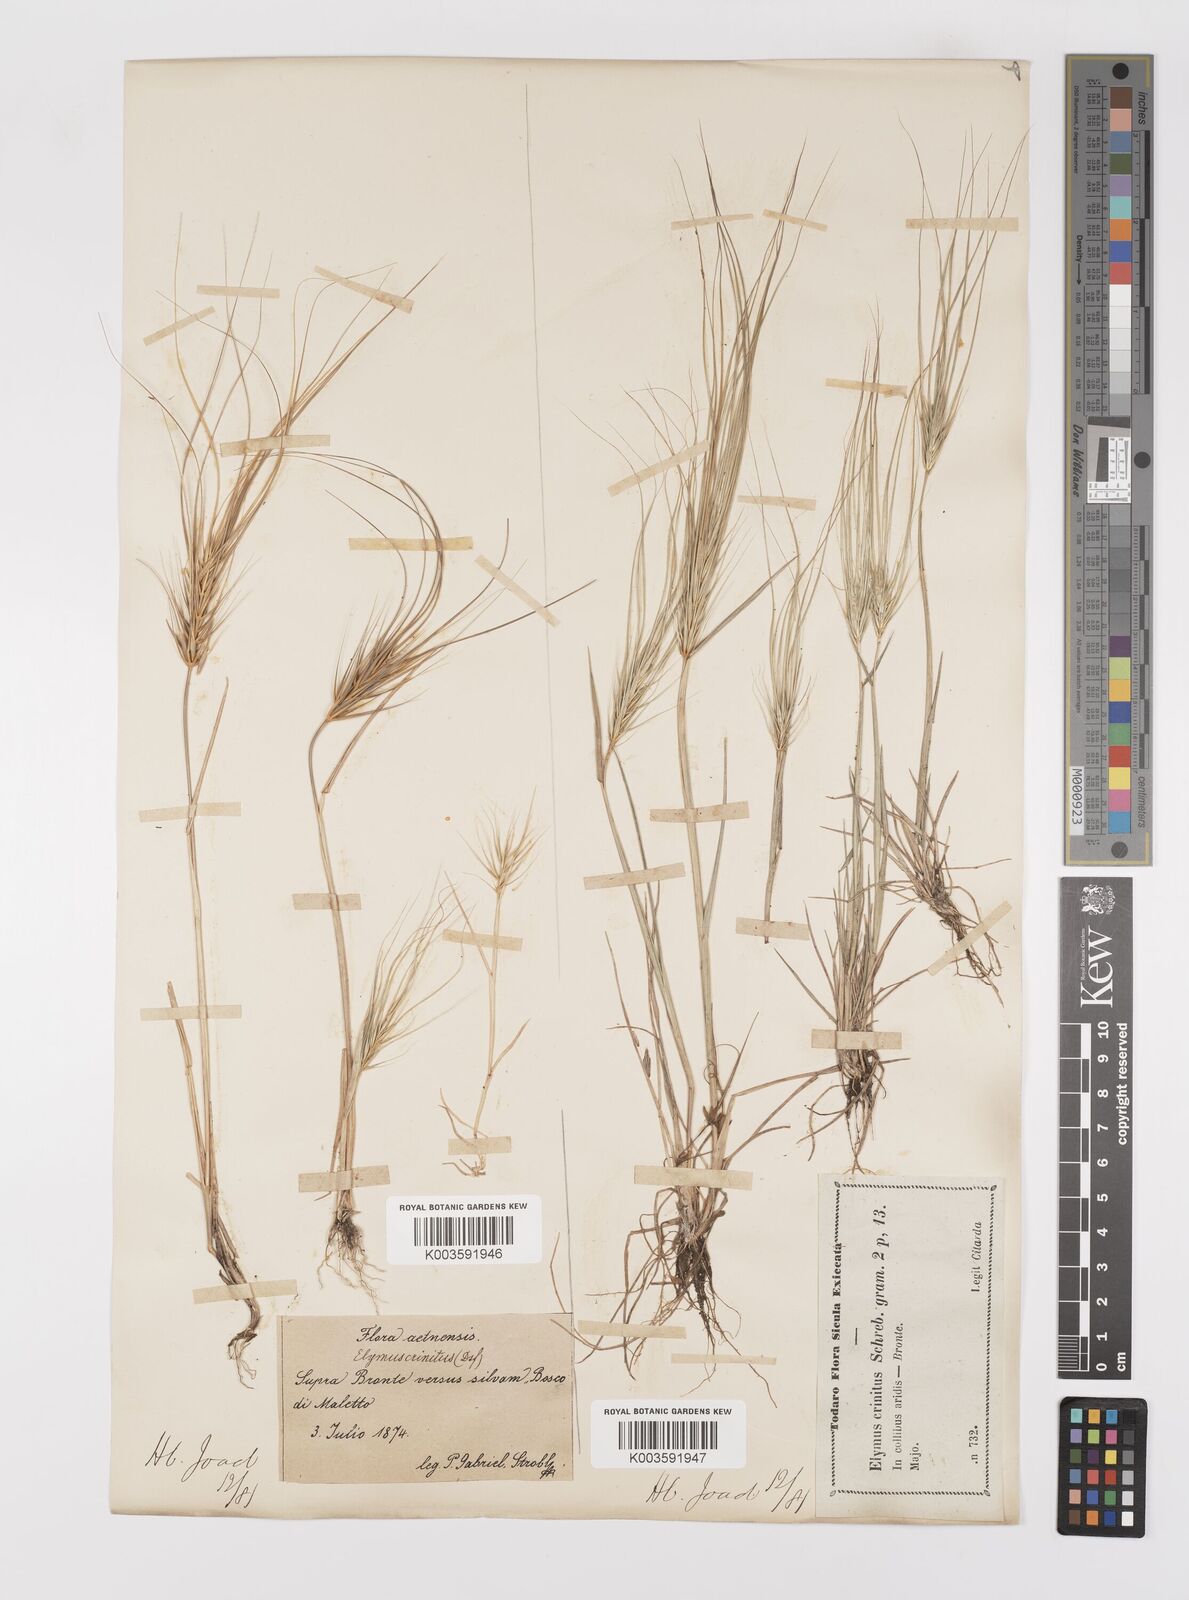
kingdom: Plantae
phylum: Tracheophyta
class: Liliopsida
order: Poales
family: Poaceae
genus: Taeniatherum
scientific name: Taeniatherum caput-medusae
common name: Medusahead
